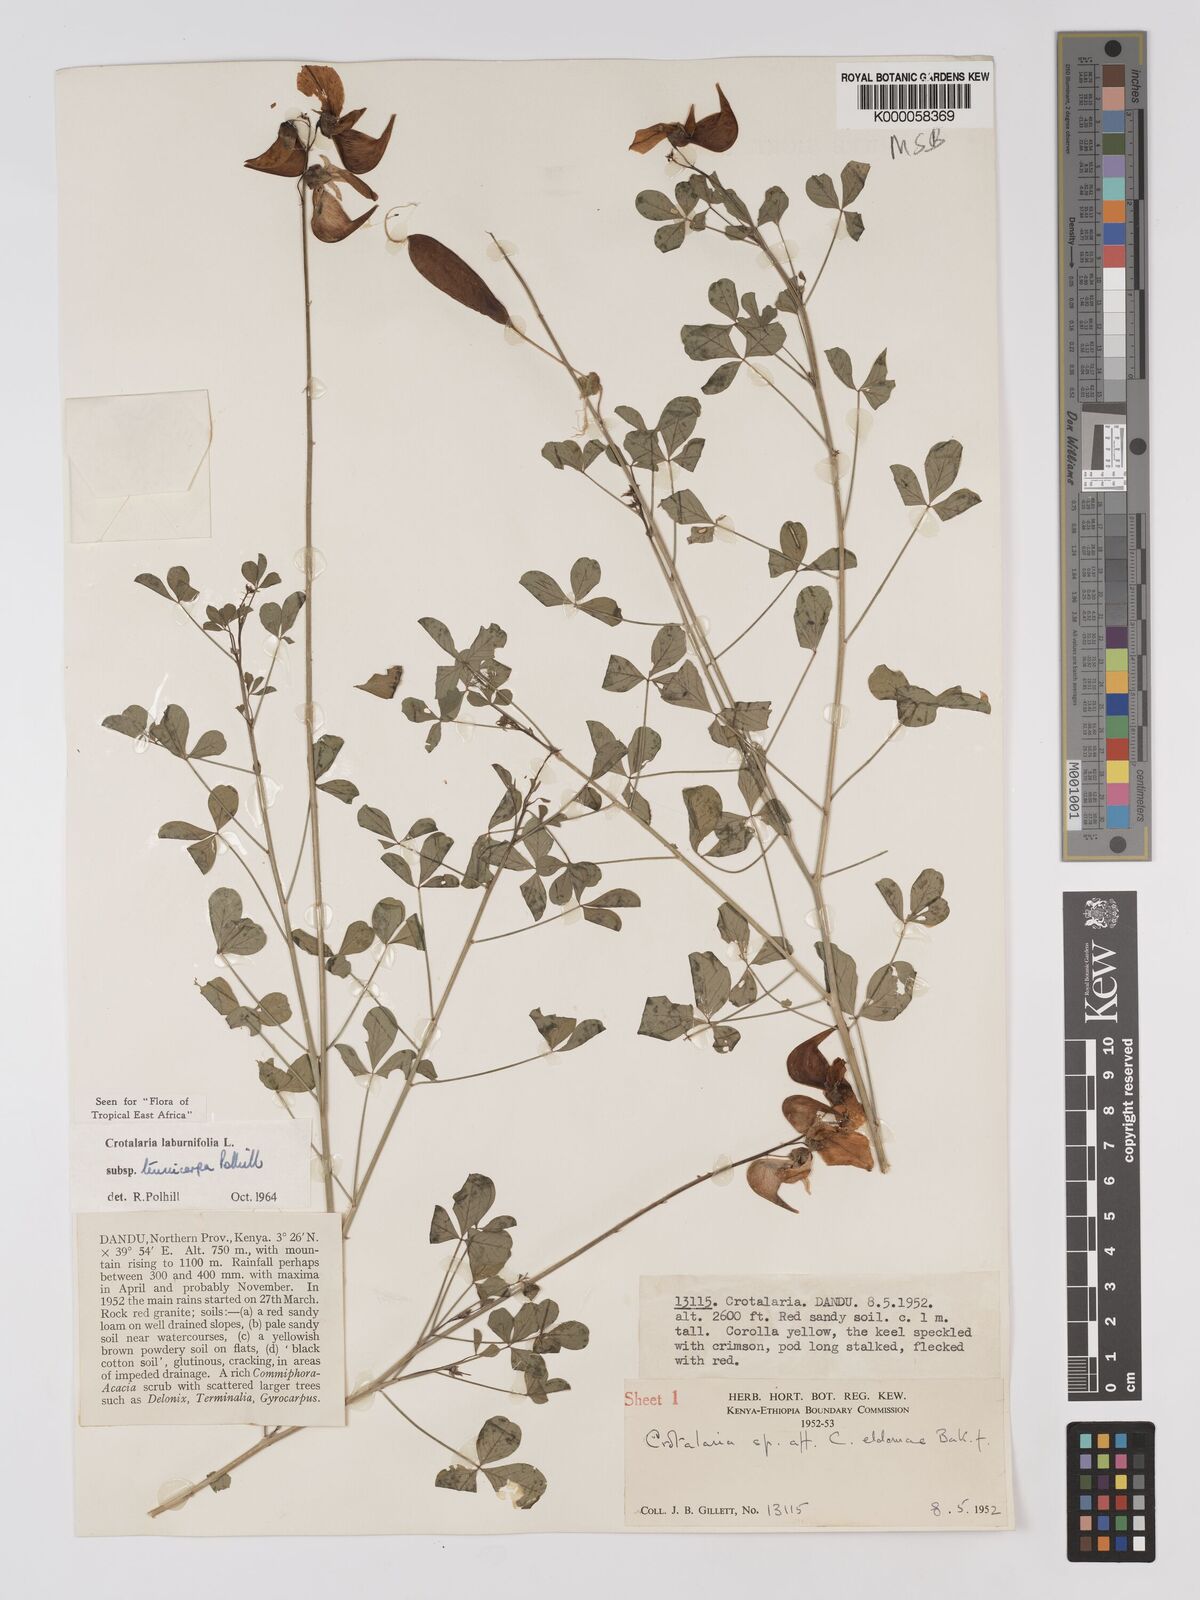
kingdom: Plantae
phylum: Tracheophyta
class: Magnoliopsida
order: Fabales
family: Fabaceae
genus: Crotalaria
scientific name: Crotalaria laburnifolia
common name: Birdflower
